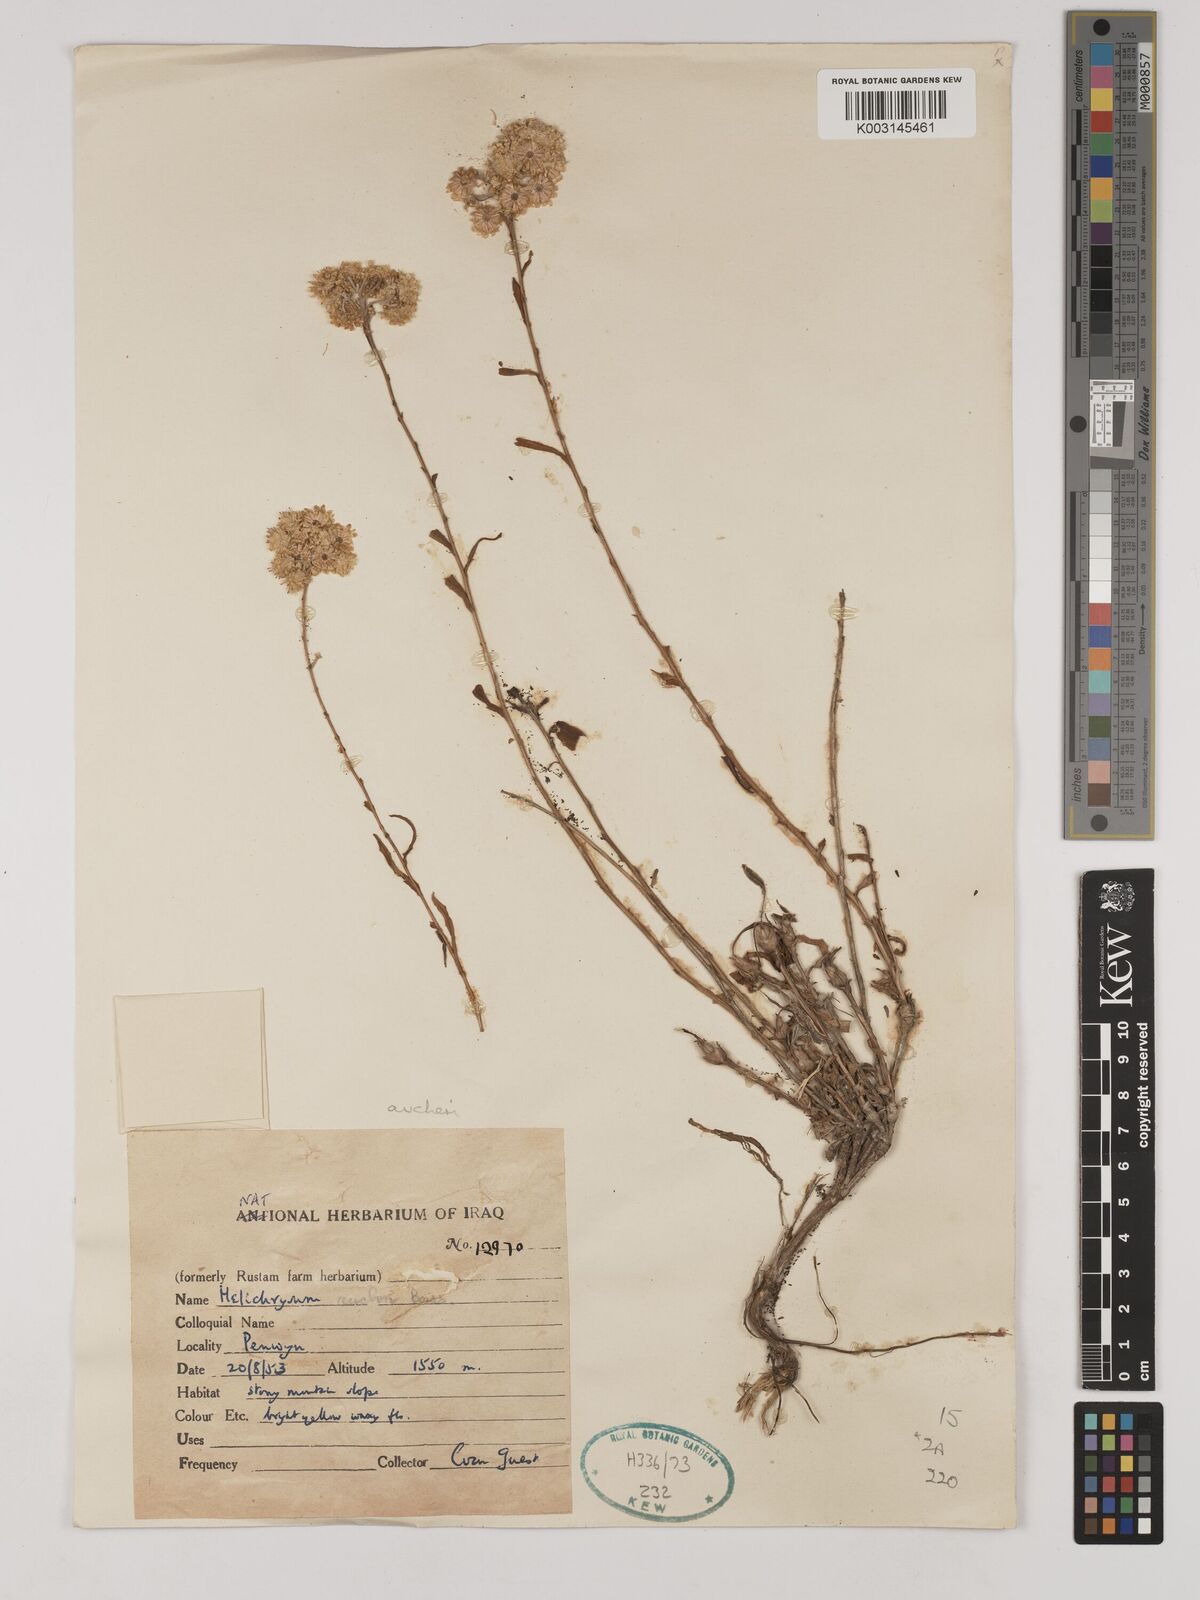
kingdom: Plantae
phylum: Tracheophyta
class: Magnoliopsida
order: Asterales
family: Asteraceae
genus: Helichrysum
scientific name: Helichrysum arenarium
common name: Strawflower
